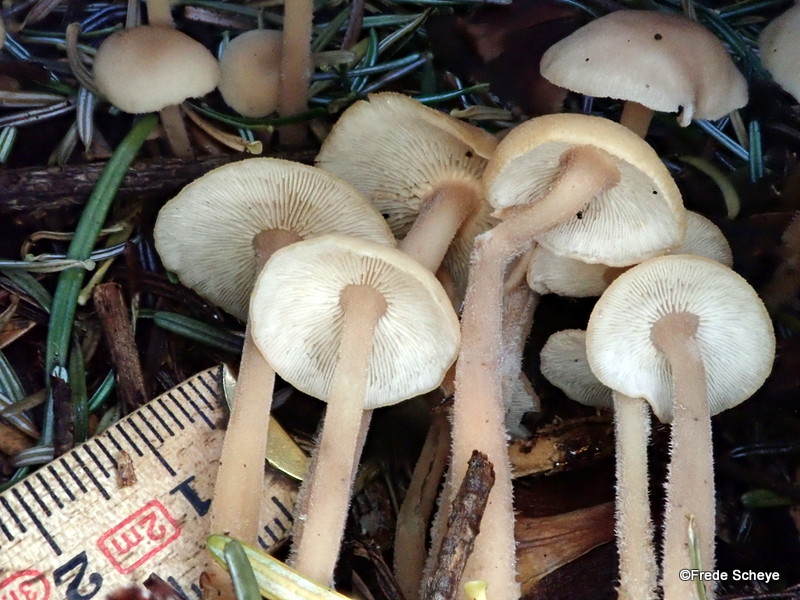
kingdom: Fungi
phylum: Basidiomycota
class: Agaricomycetes
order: Agaricales
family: Omphalotaceae
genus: Collybiopsis
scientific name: Collybiopsis confluens
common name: knippe-fladhat
